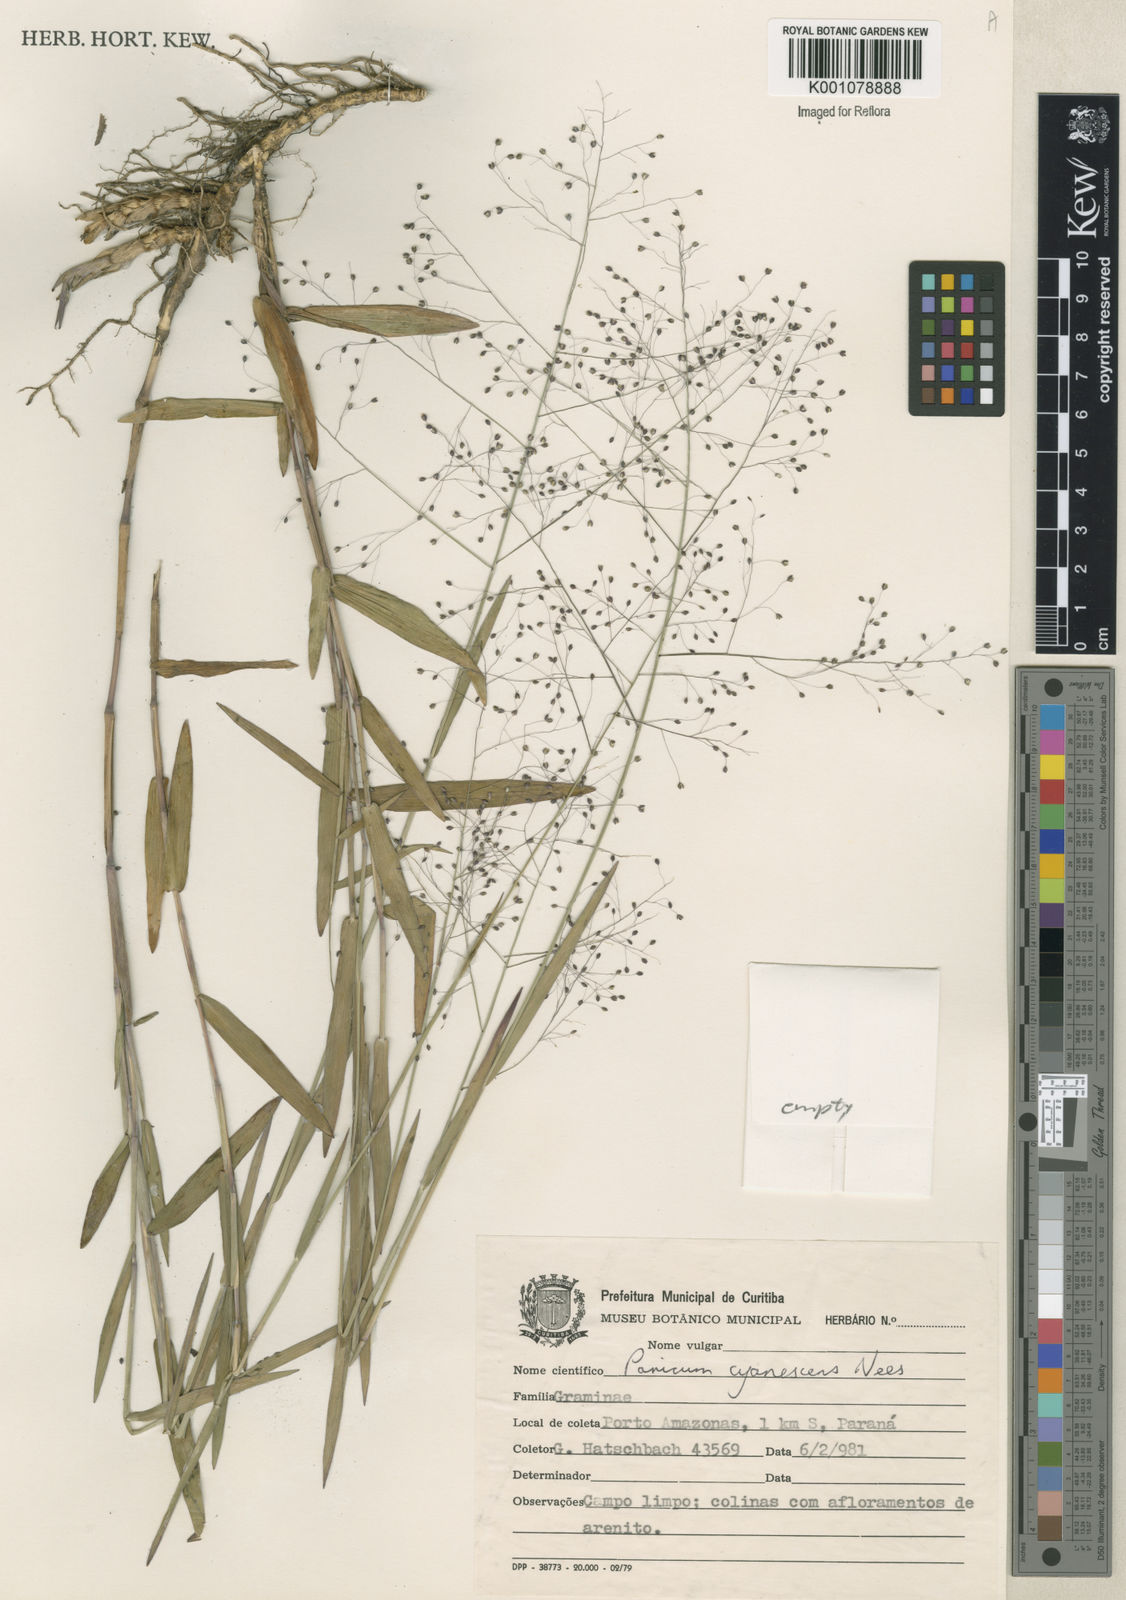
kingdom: Plantae
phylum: Tracheophyta
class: Liliopsida
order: Poales
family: Poaceae
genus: Trichanthecium
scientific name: Trichanthecium cyanescens
